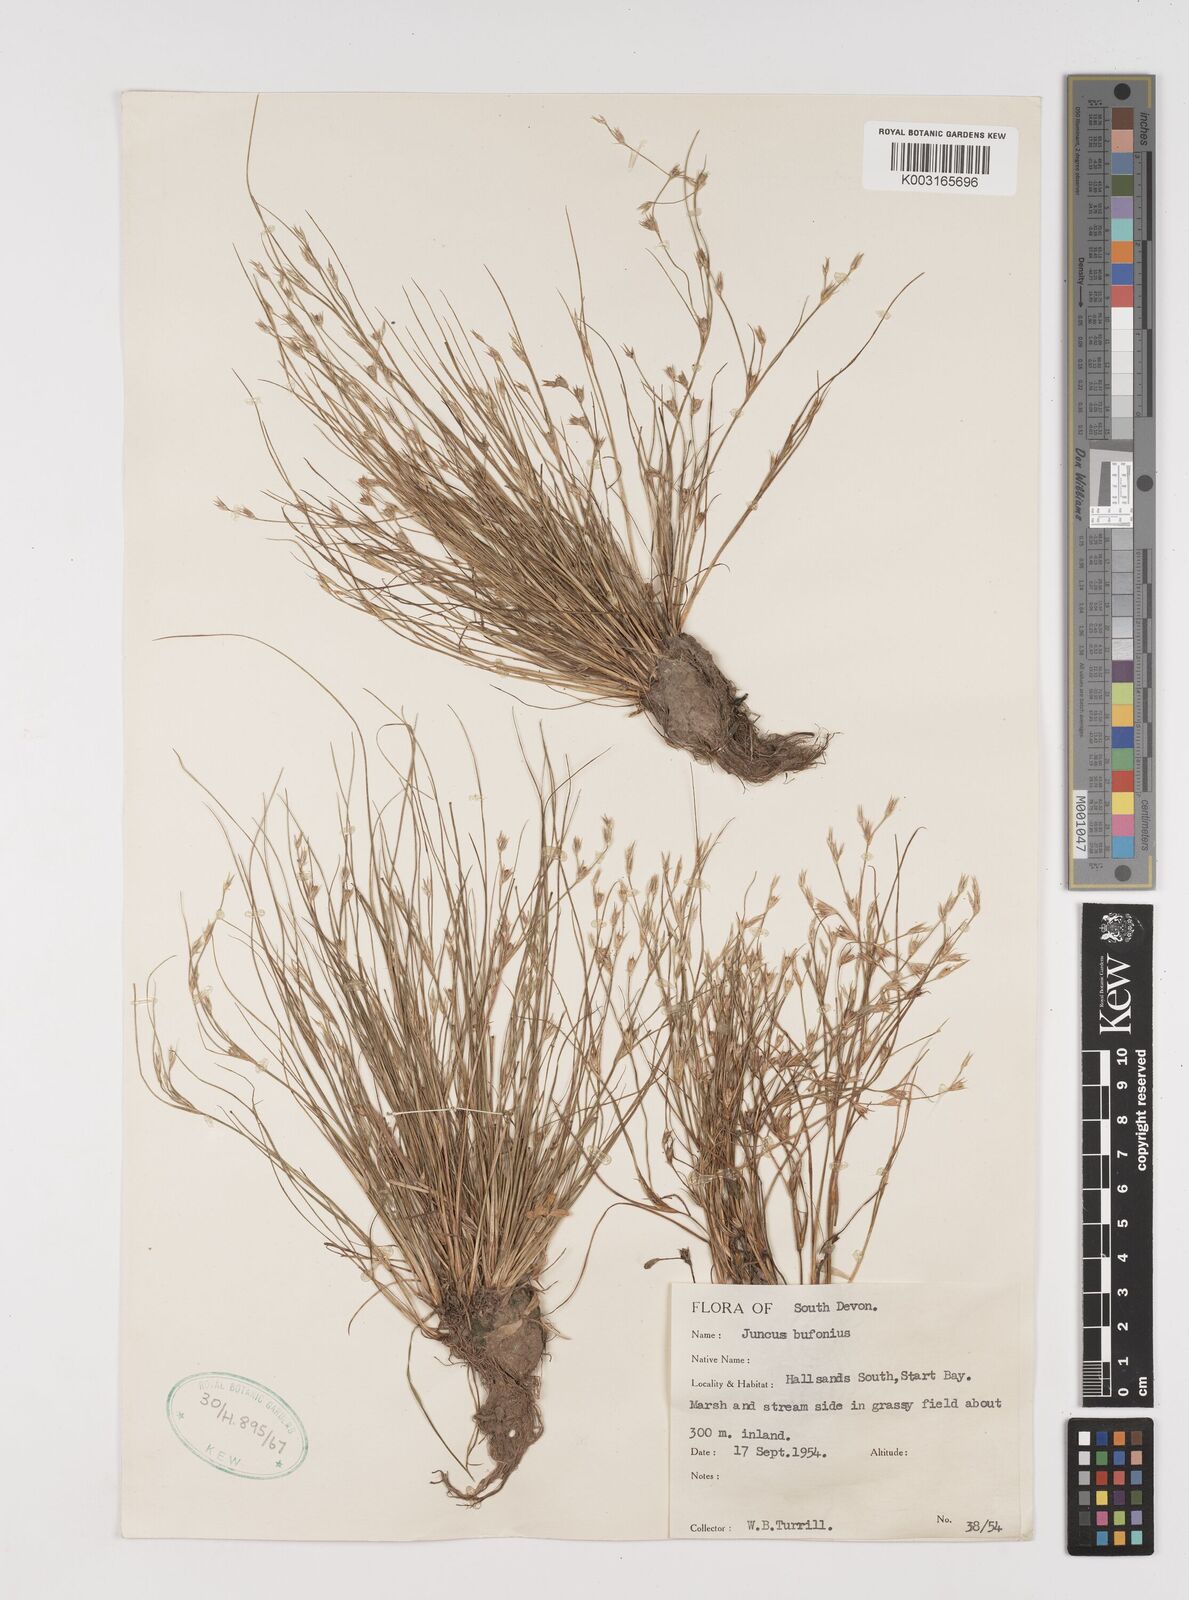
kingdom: Plantae
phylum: Tracheophyta
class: Liliopsida
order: Poales
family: Juncaceae
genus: Juncus
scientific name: Juncus bufonius
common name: Toad rush
